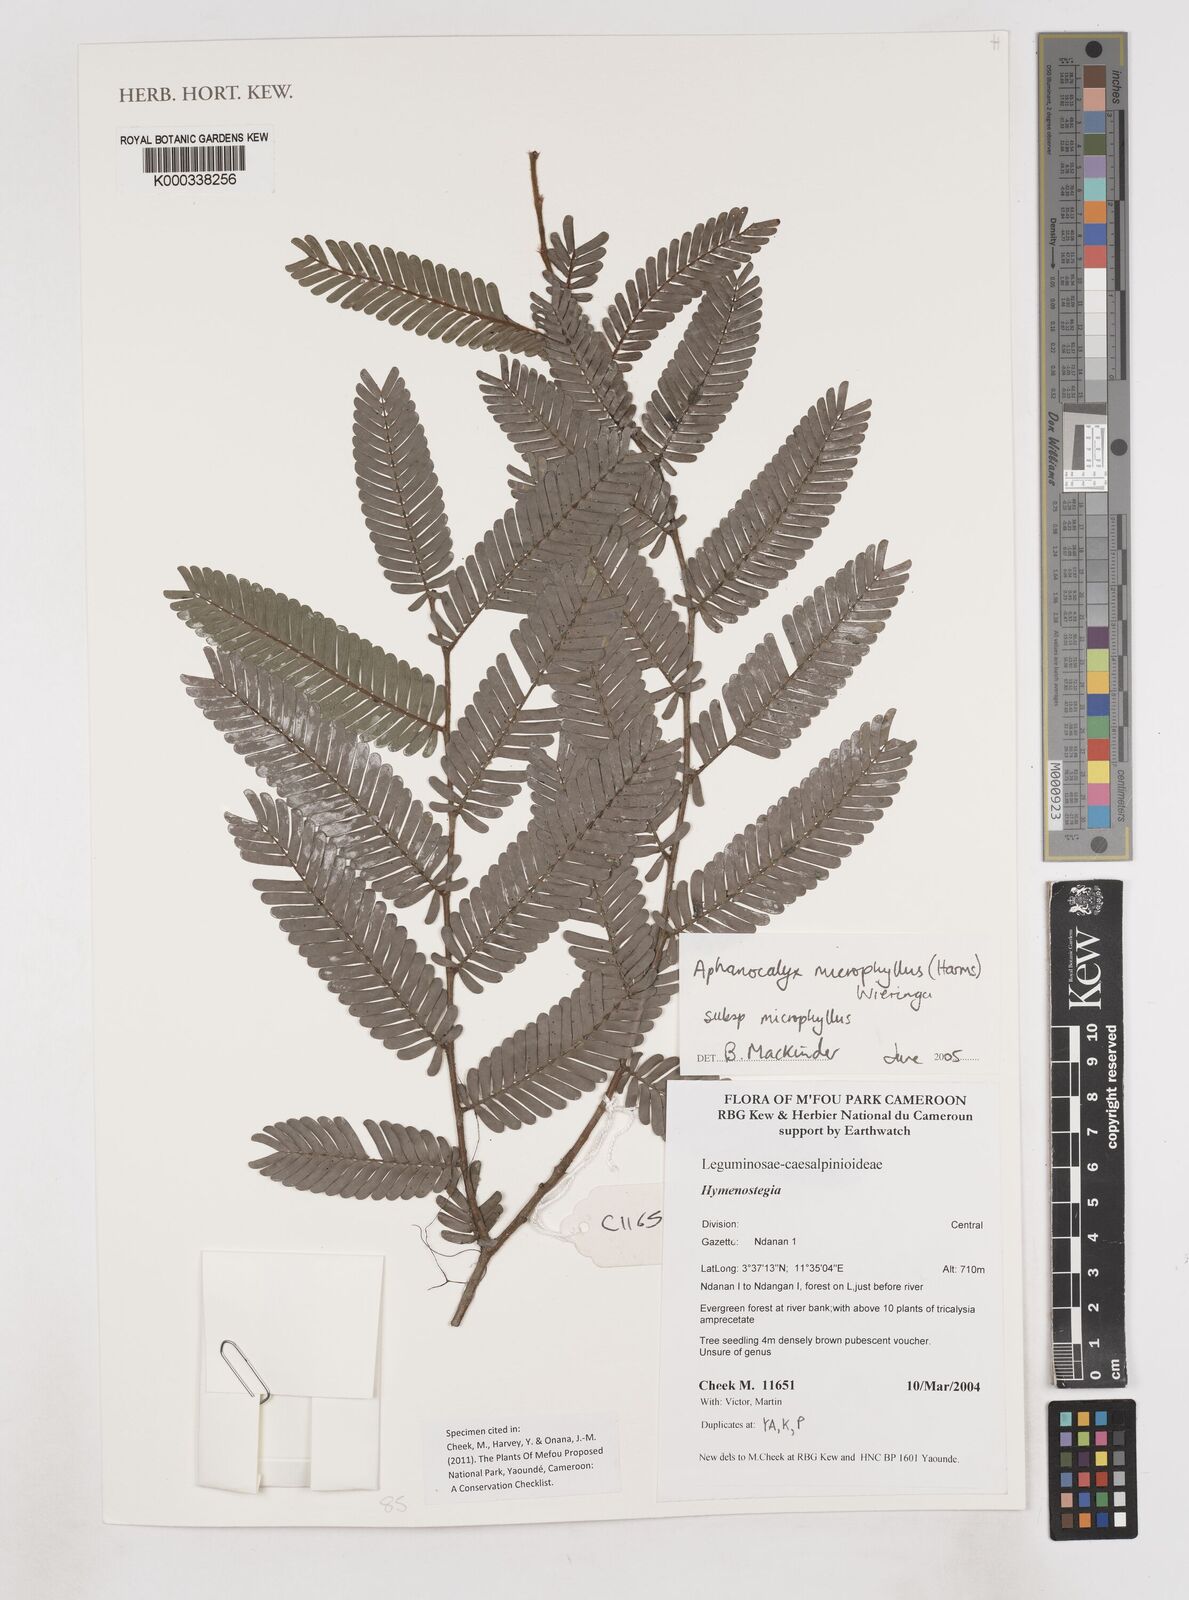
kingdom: Plantae
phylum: Tracheophyta
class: Magnoliopsida
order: Fabales
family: Fabaceae
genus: Aphanocalyx
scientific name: Aphanocalyx microphyllus
